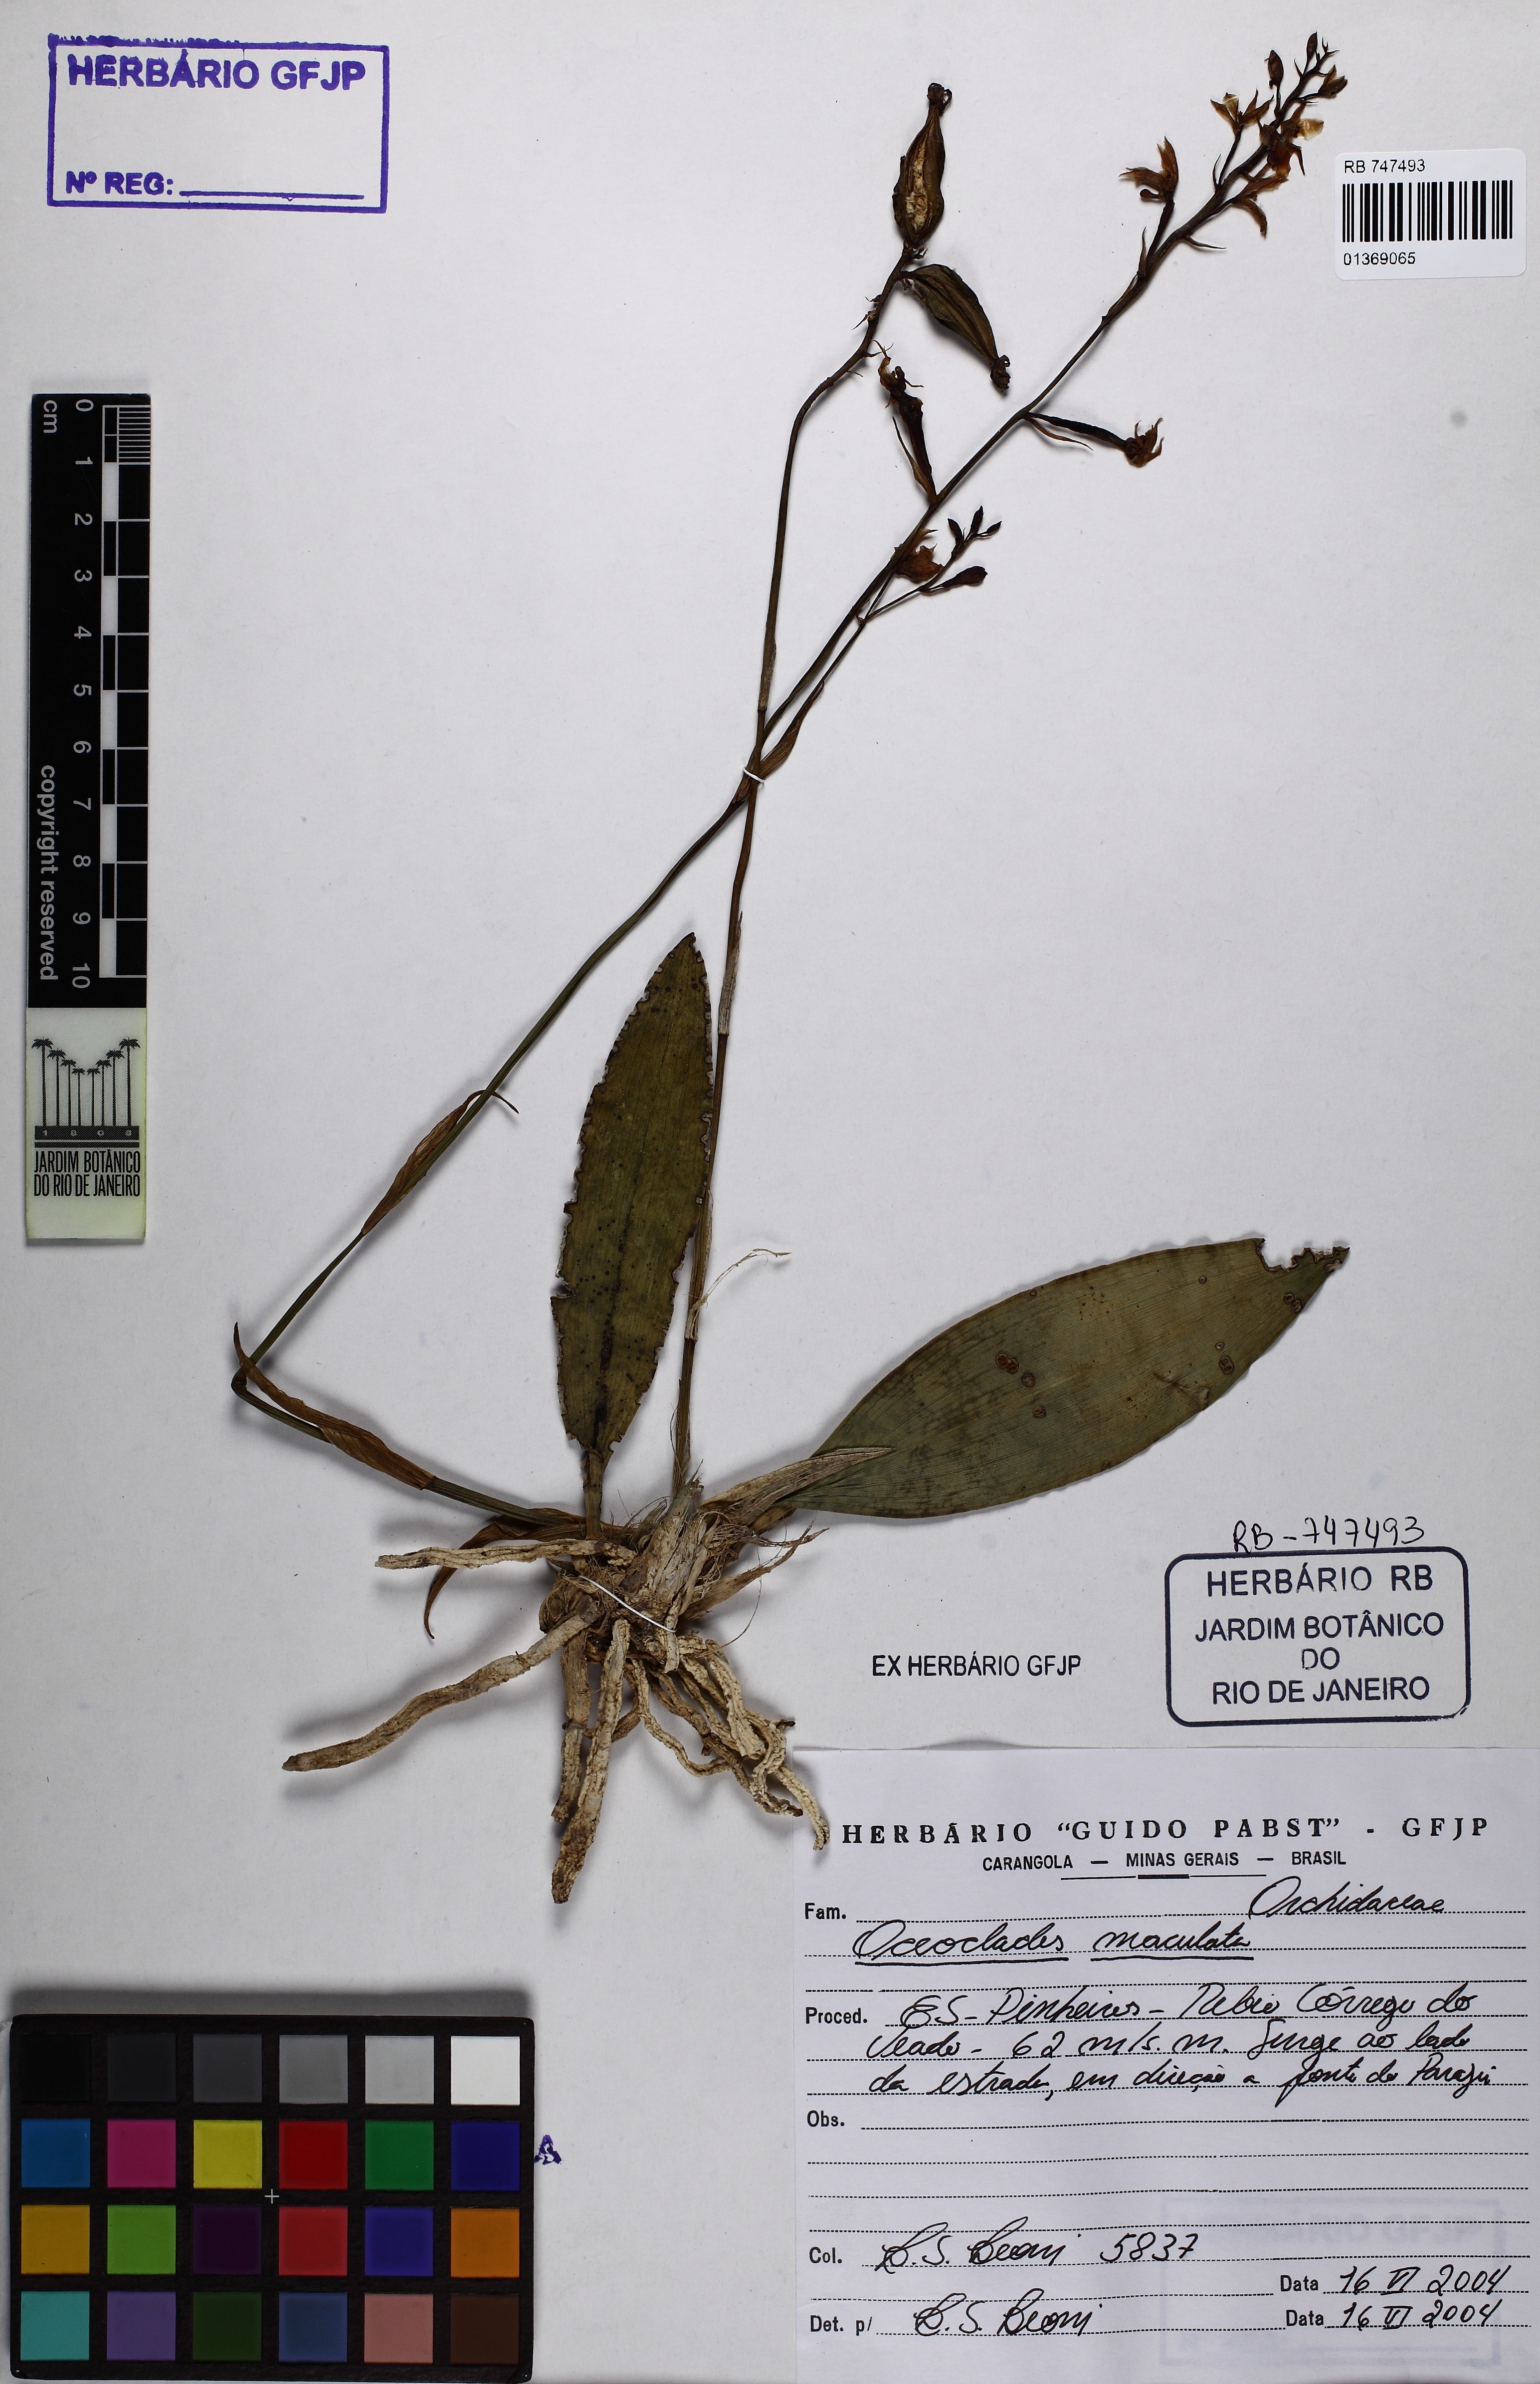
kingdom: Plantae
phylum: Tracheophyta
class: Liliopsida
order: Asparagales
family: Orchidaceae
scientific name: Orchidaceae
